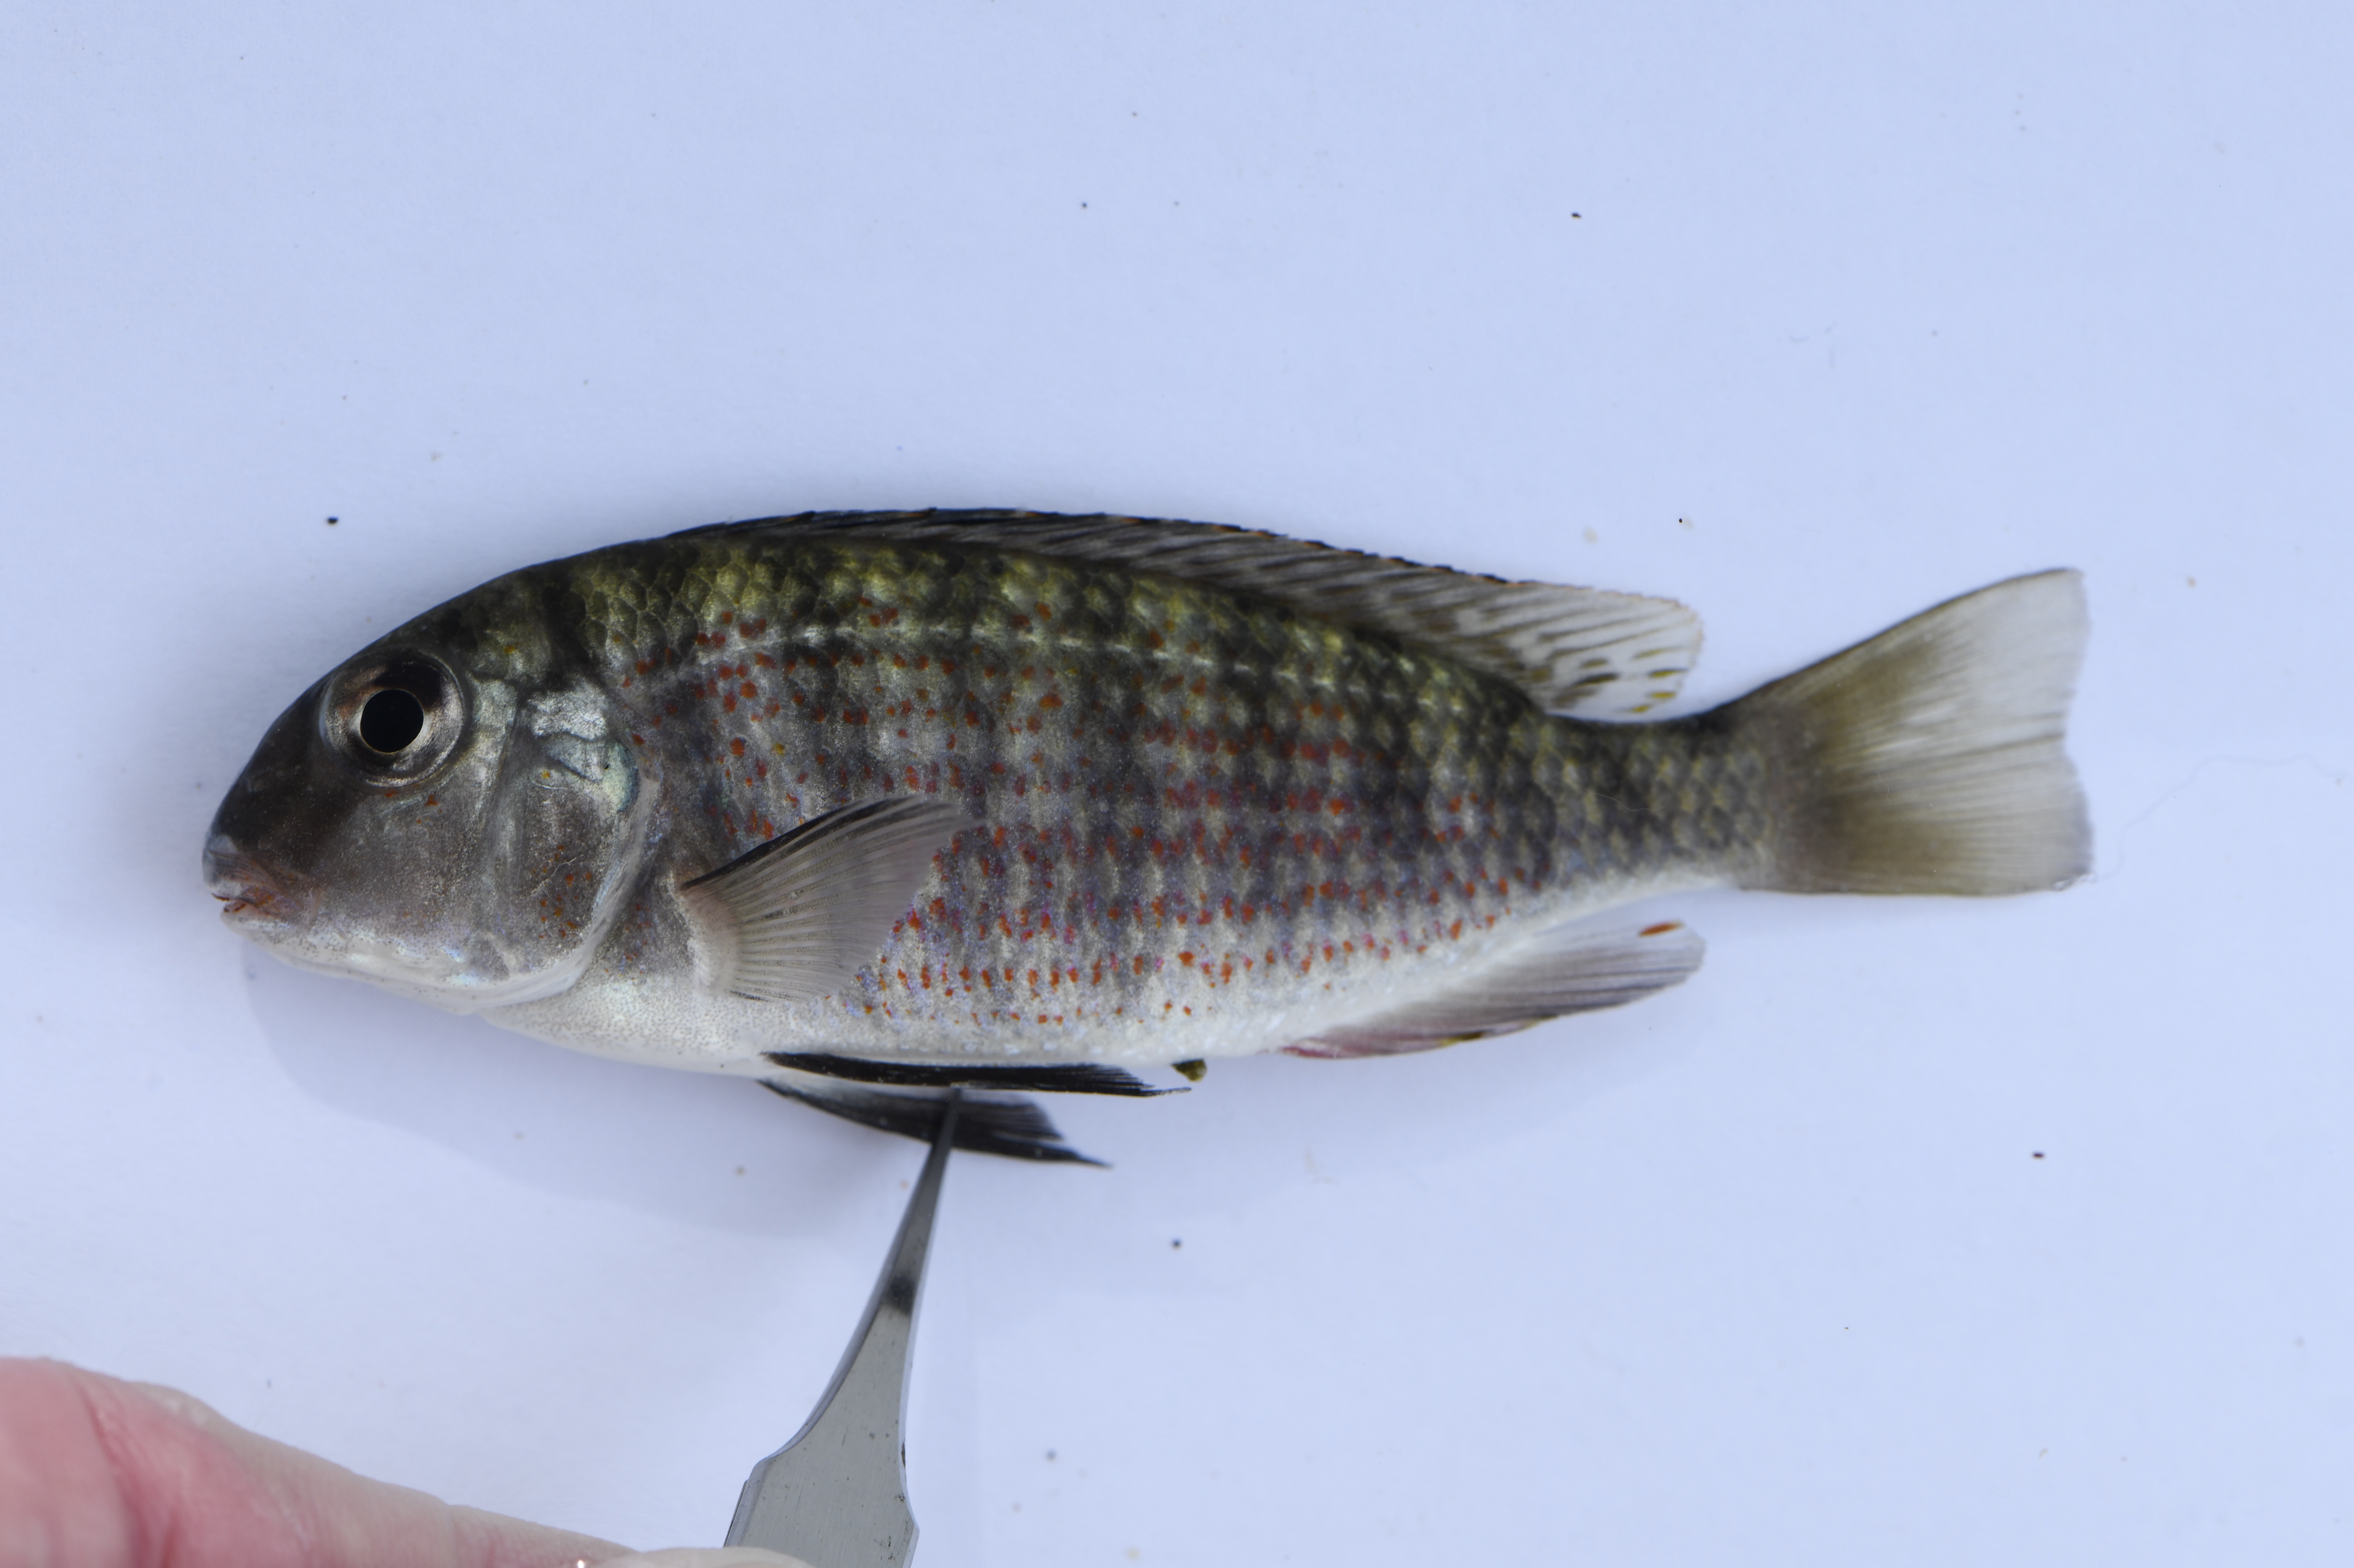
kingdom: Animalia
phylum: Chordata
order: Perciformes
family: Cichlidae
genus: Pseudosimochromis
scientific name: Pseudosimochromis babaulti
